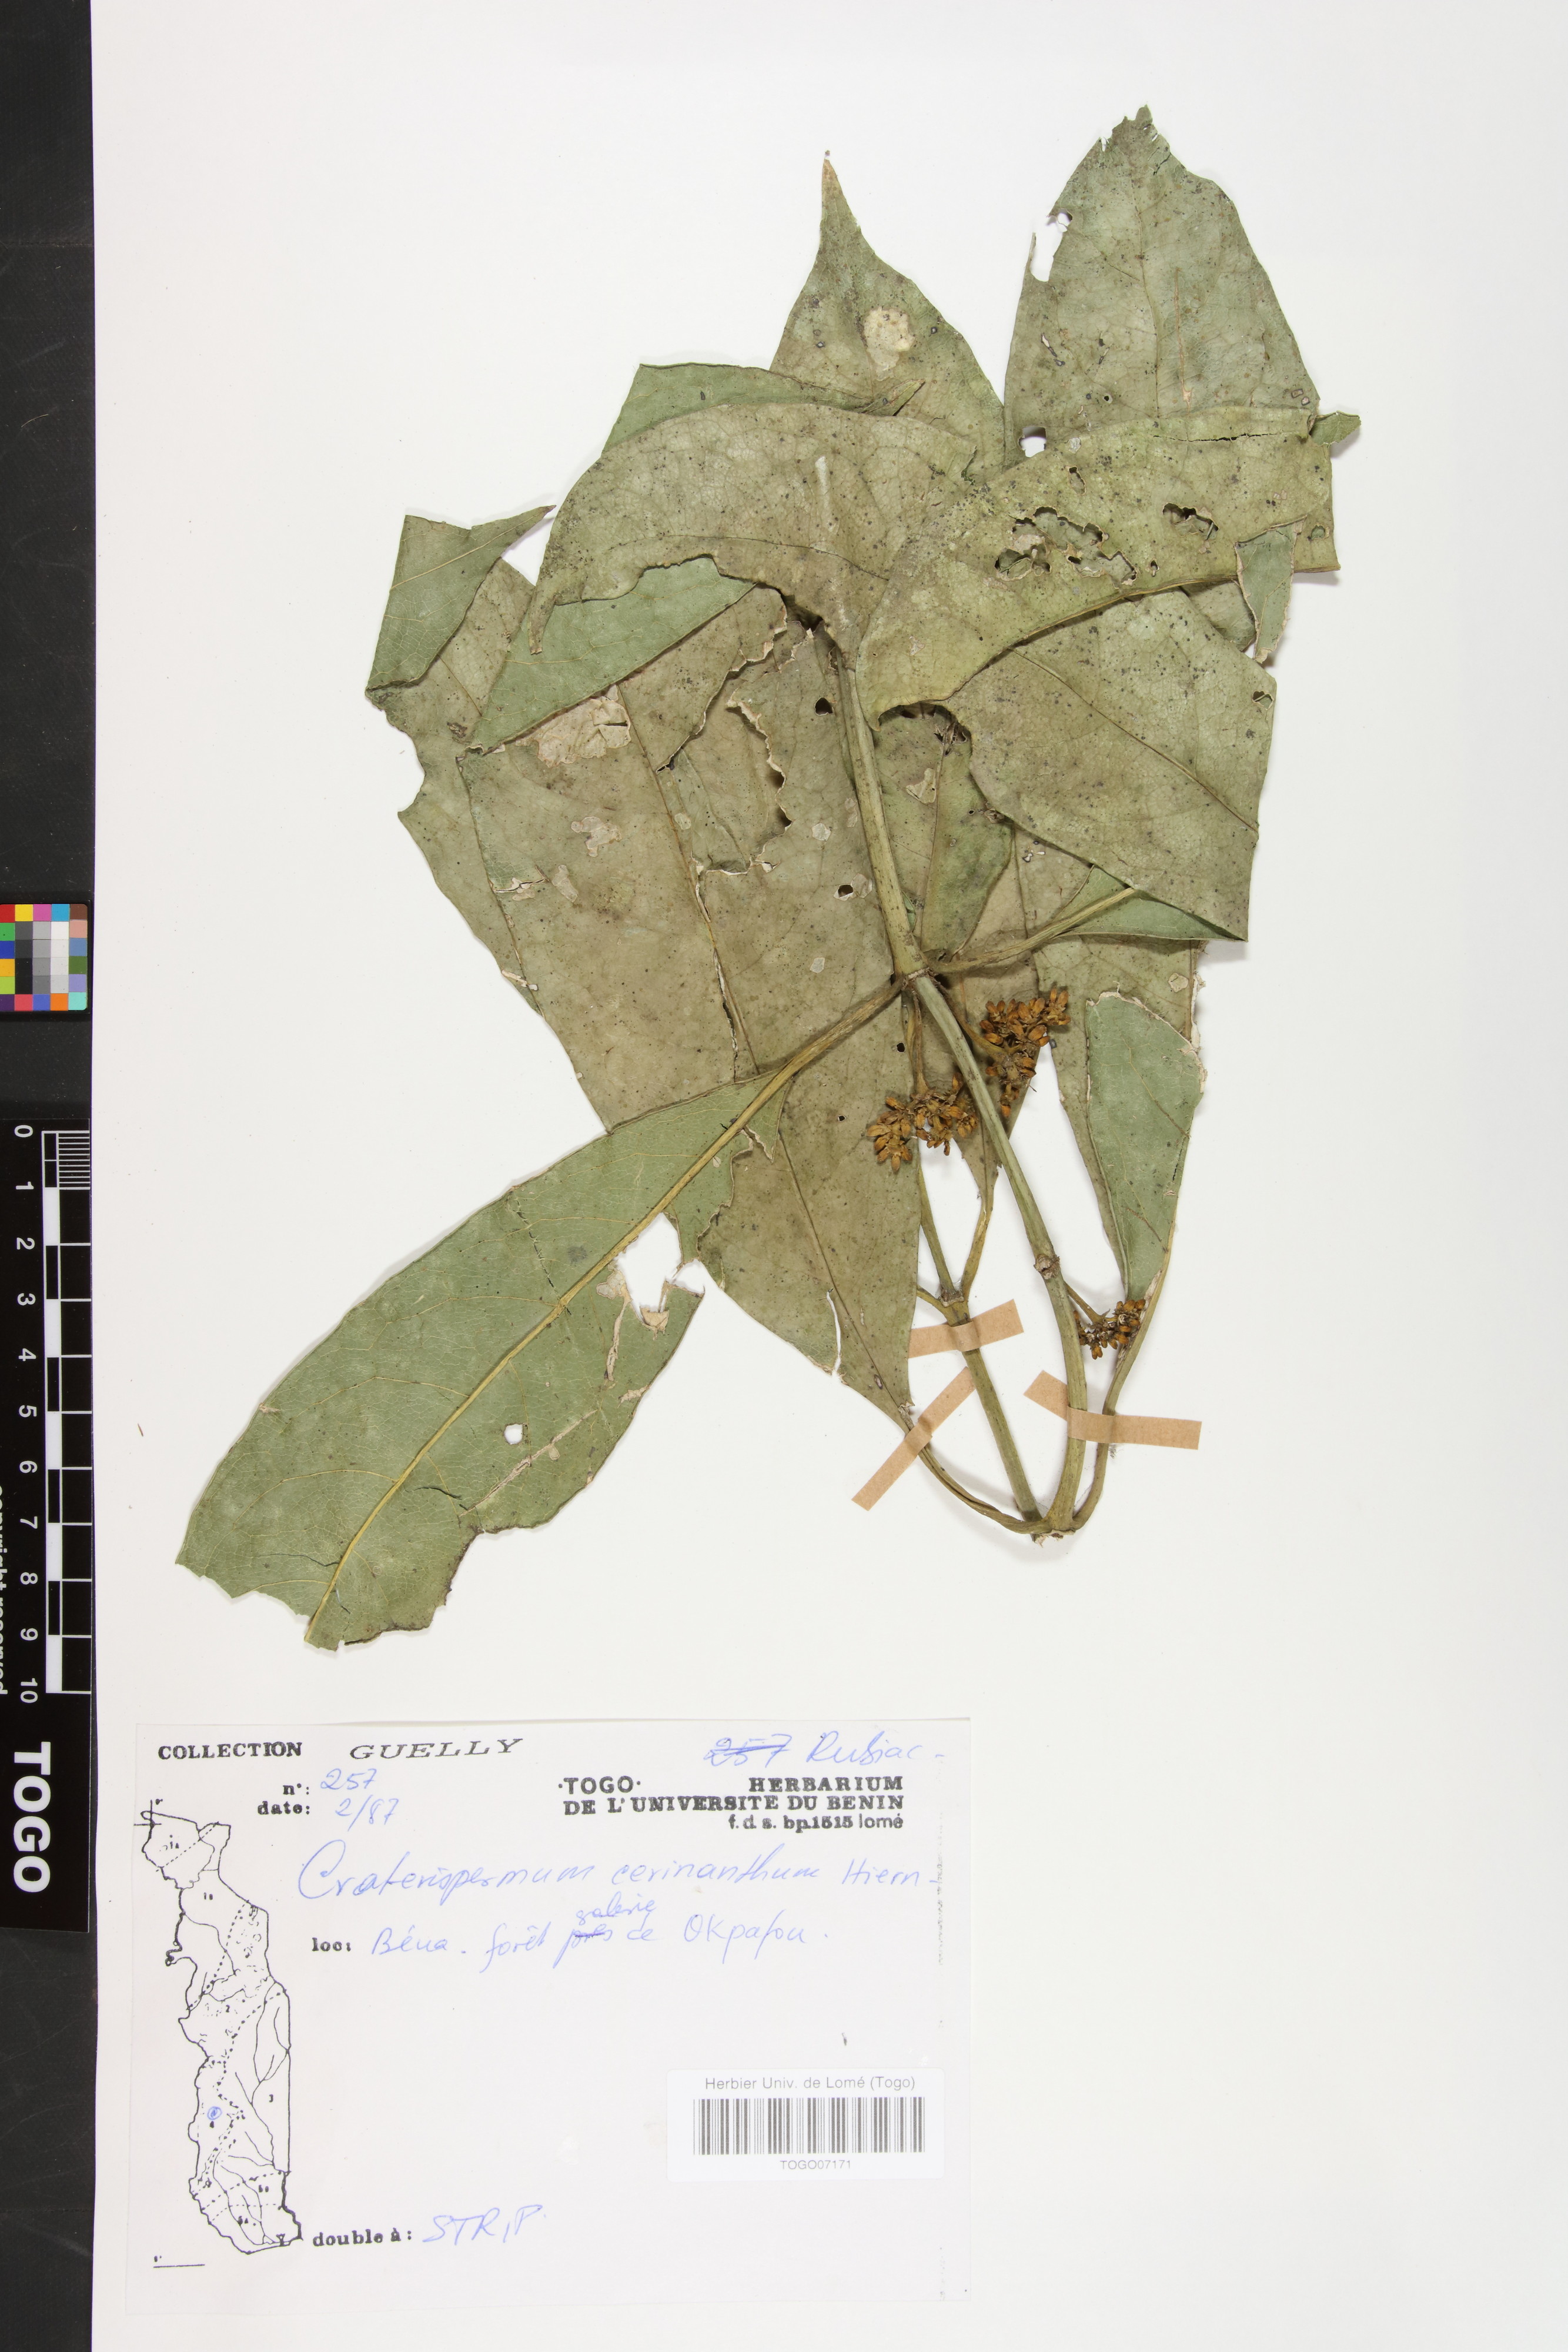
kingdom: Plantae
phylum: Tracheophyta
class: Magnoliopsida
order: Gentianales
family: Rubiaceae
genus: Craterispermum
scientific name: Craterispermum cerinanthum
